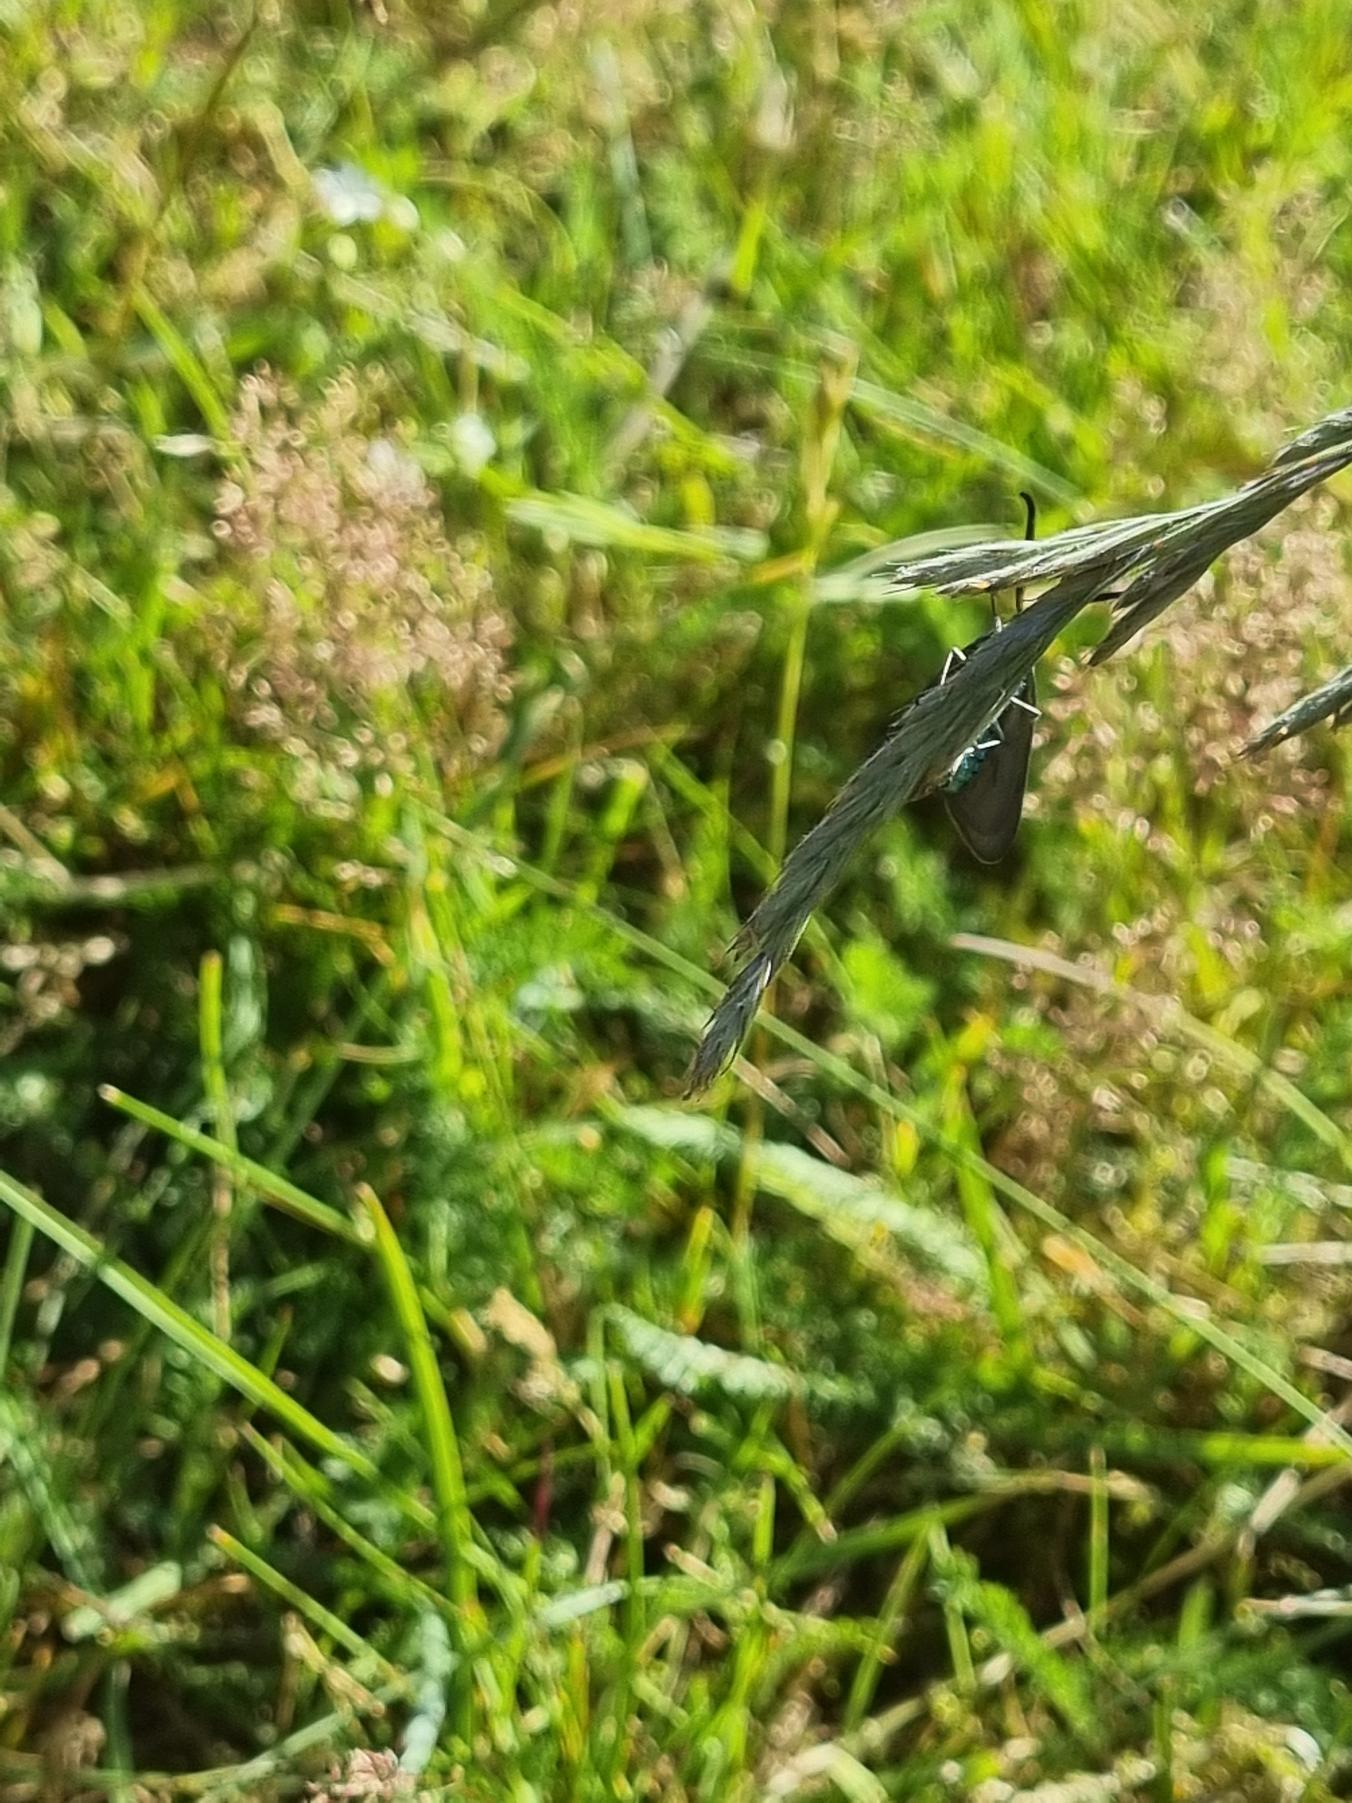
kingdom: Animalia
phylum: Arthropoda
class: Insecta
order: Lepidoptera
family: Zygaenidae
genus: Adscita
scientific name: Adscita statices
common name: Metalvinge
